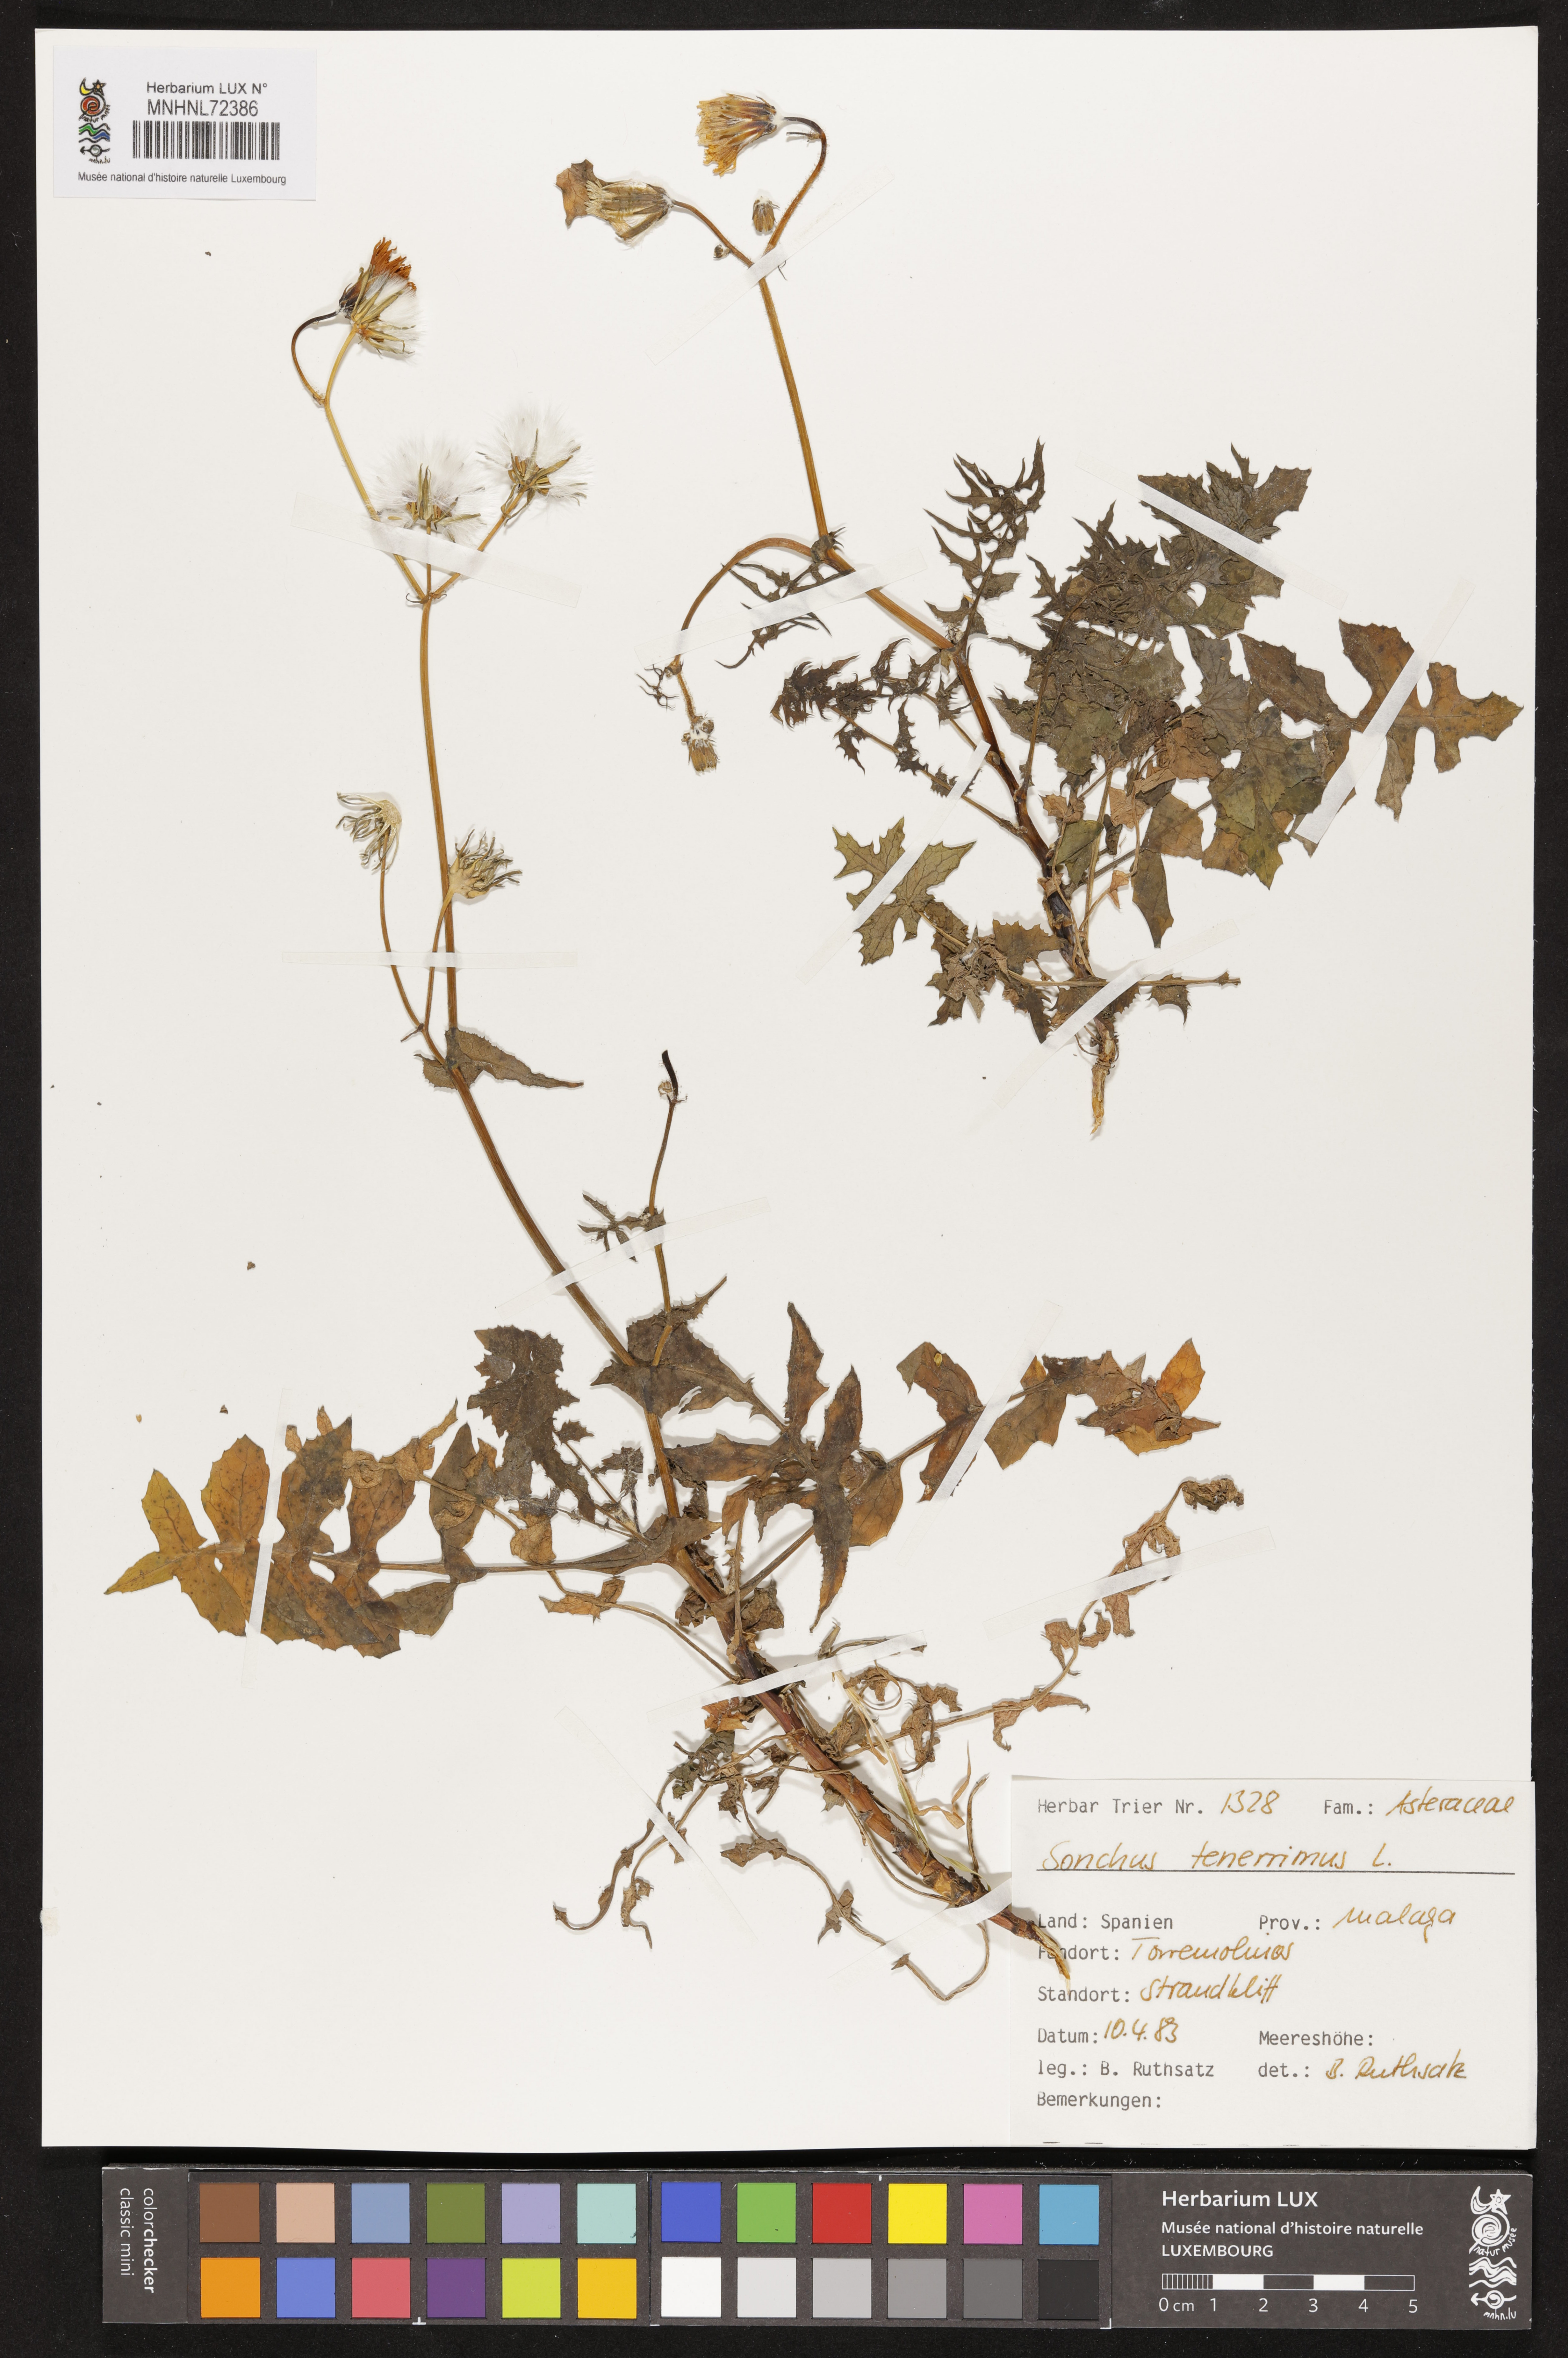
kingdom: Plantae
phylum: Tracheophyta
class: Magnoliopsida
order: Asterales
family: Asteraceae
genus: Sonchus
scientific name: Sonchus tenerrimus
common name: Clammy sowthistle
